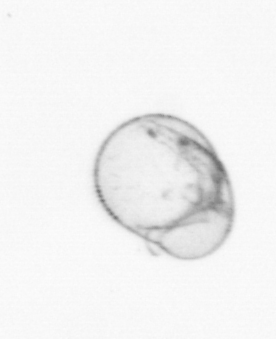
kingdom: Chromista
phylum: Myzozoa
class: Dinophyceae
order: Noctilucales
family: Noctilucaceae
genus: Noctiluca
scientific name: Noctiluca scintillans
